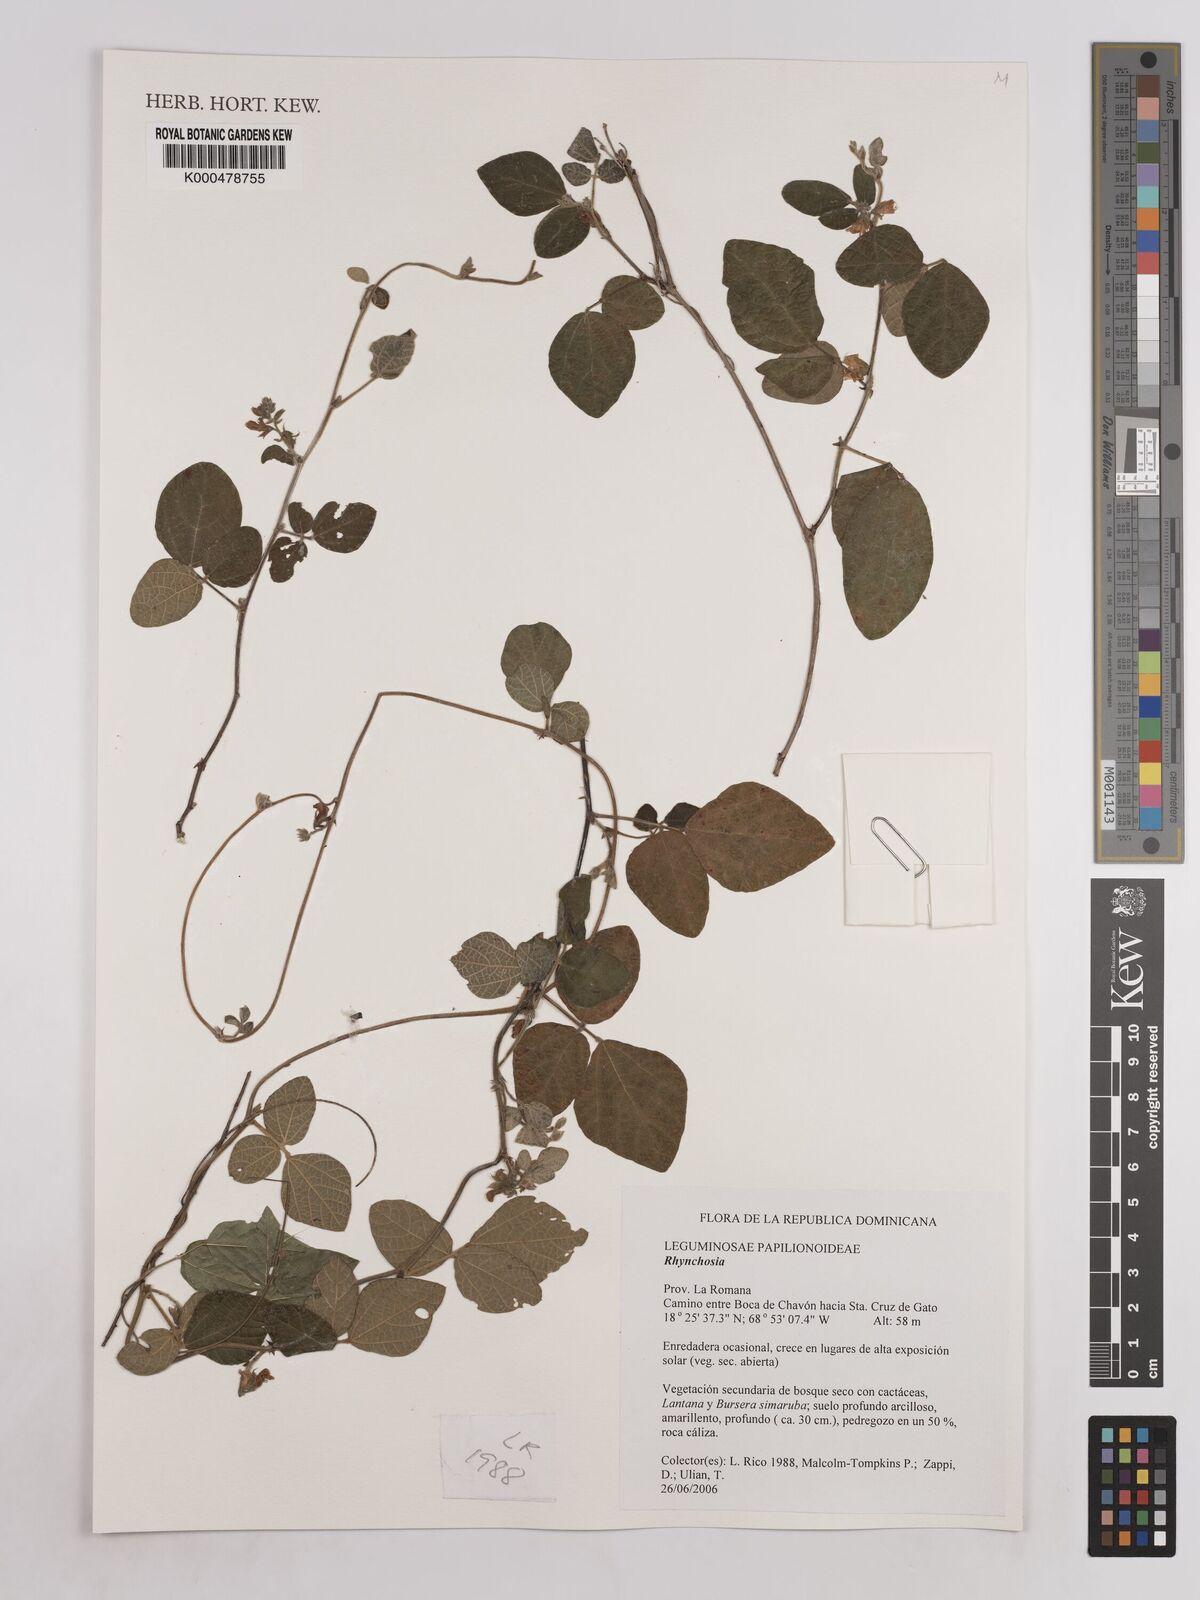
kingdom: Plantae
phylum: Tracheophyta
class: Magnoliopsida
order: Fabales
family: Fabaceae
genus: Rhynchosia
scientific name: Rhynchosia
